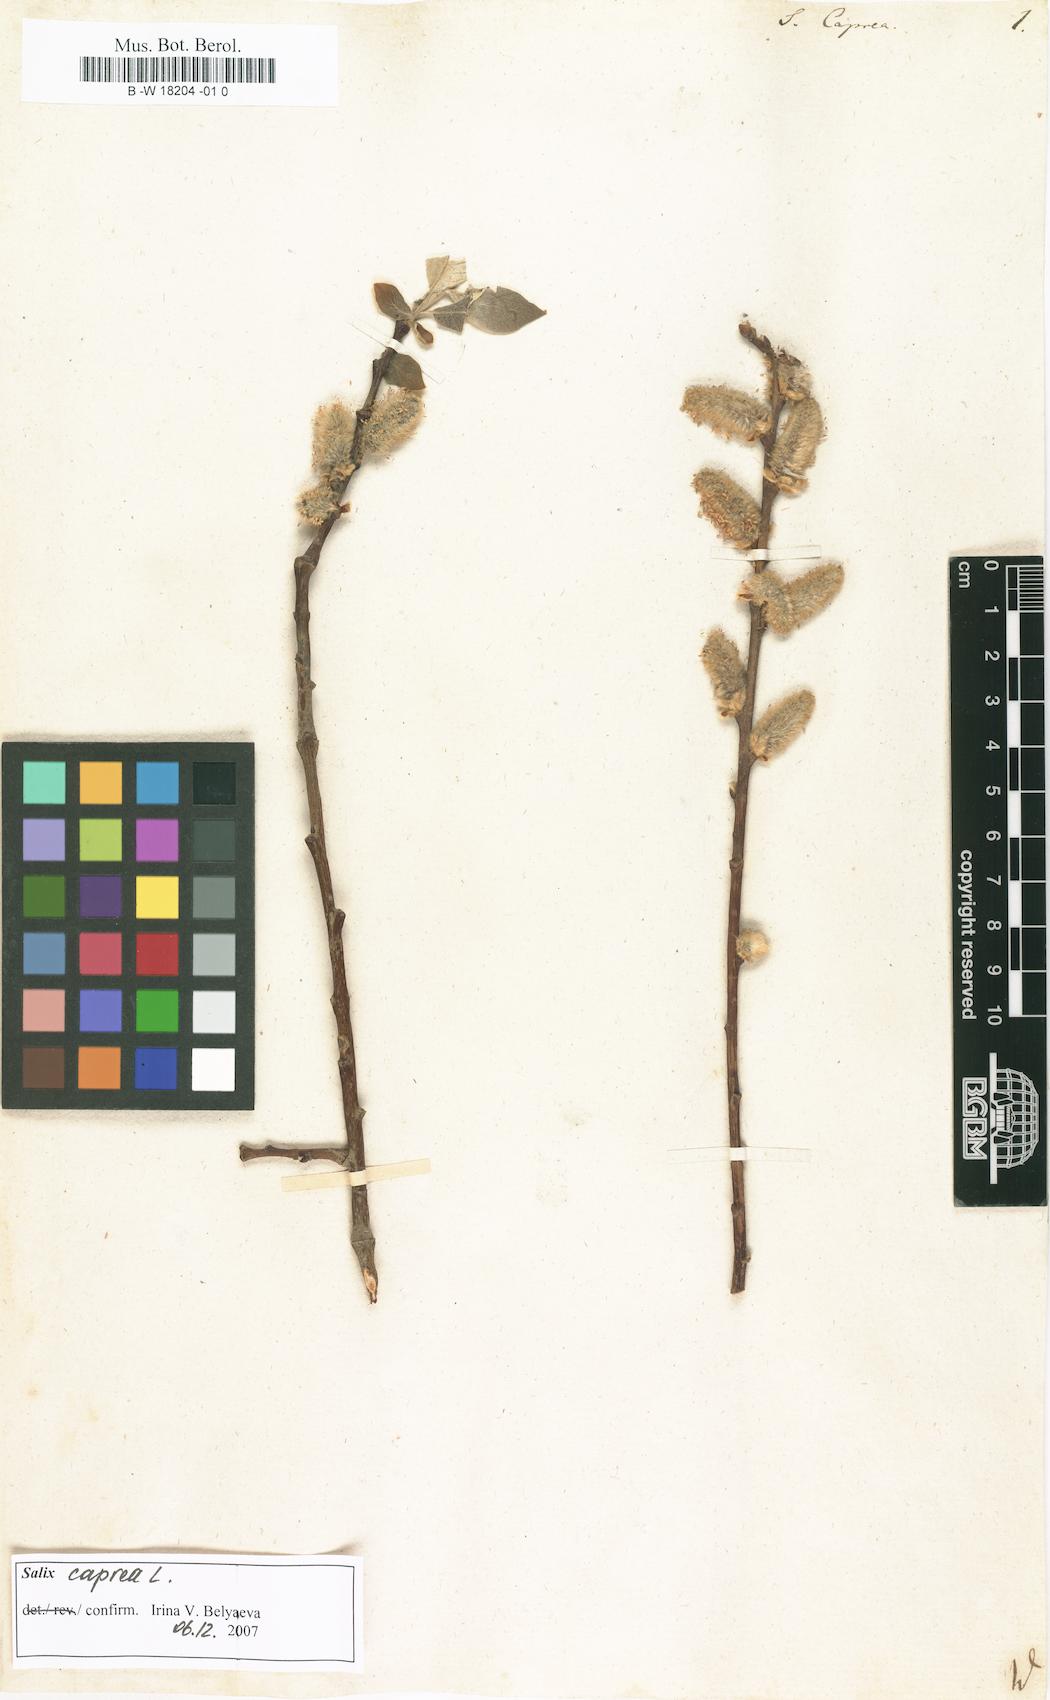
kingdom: Plantae
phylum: Tracheophyta
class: Magnoliopsida
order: Malpighiales
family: Salicaceae
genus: Salix
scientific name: Salix caprea
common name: Goat willow
